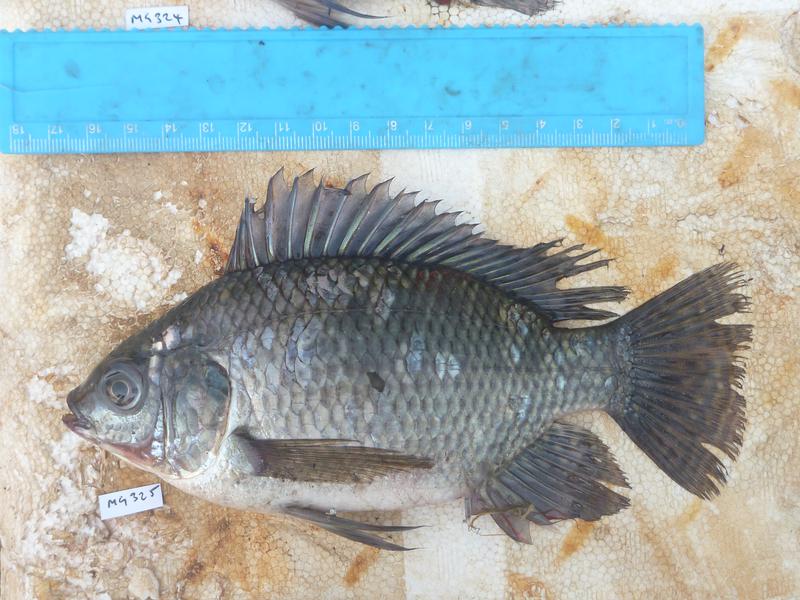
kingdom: Animalia
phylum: Chordata
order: Perciformes
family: Cichlidae
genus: Oreochromis
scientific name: Oreochromis niloticus
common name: Nile tilapia
